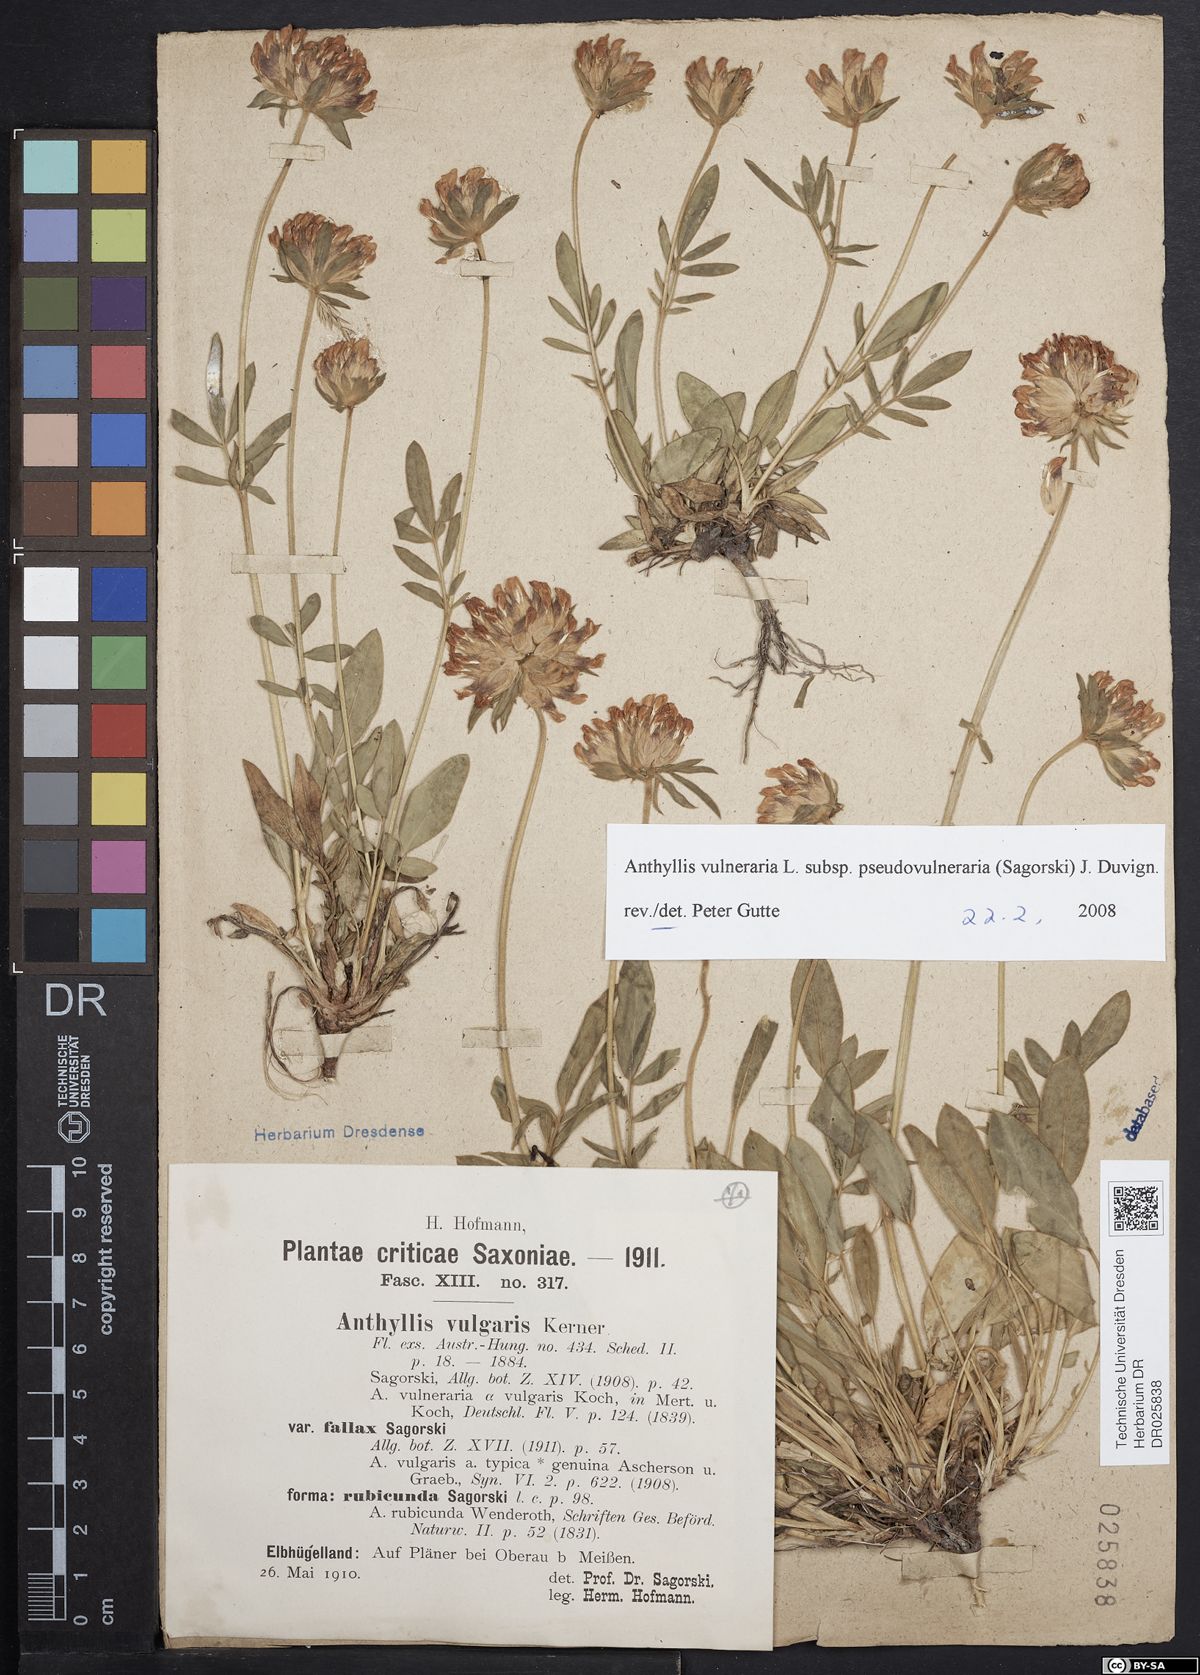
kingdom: Plantae
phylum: Tracheophyta
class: Magnoliopsida
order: Fabales
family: Fabaceae
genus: Anthyllis
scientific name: Anthyllis vulneraria
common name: Kidney vetch
